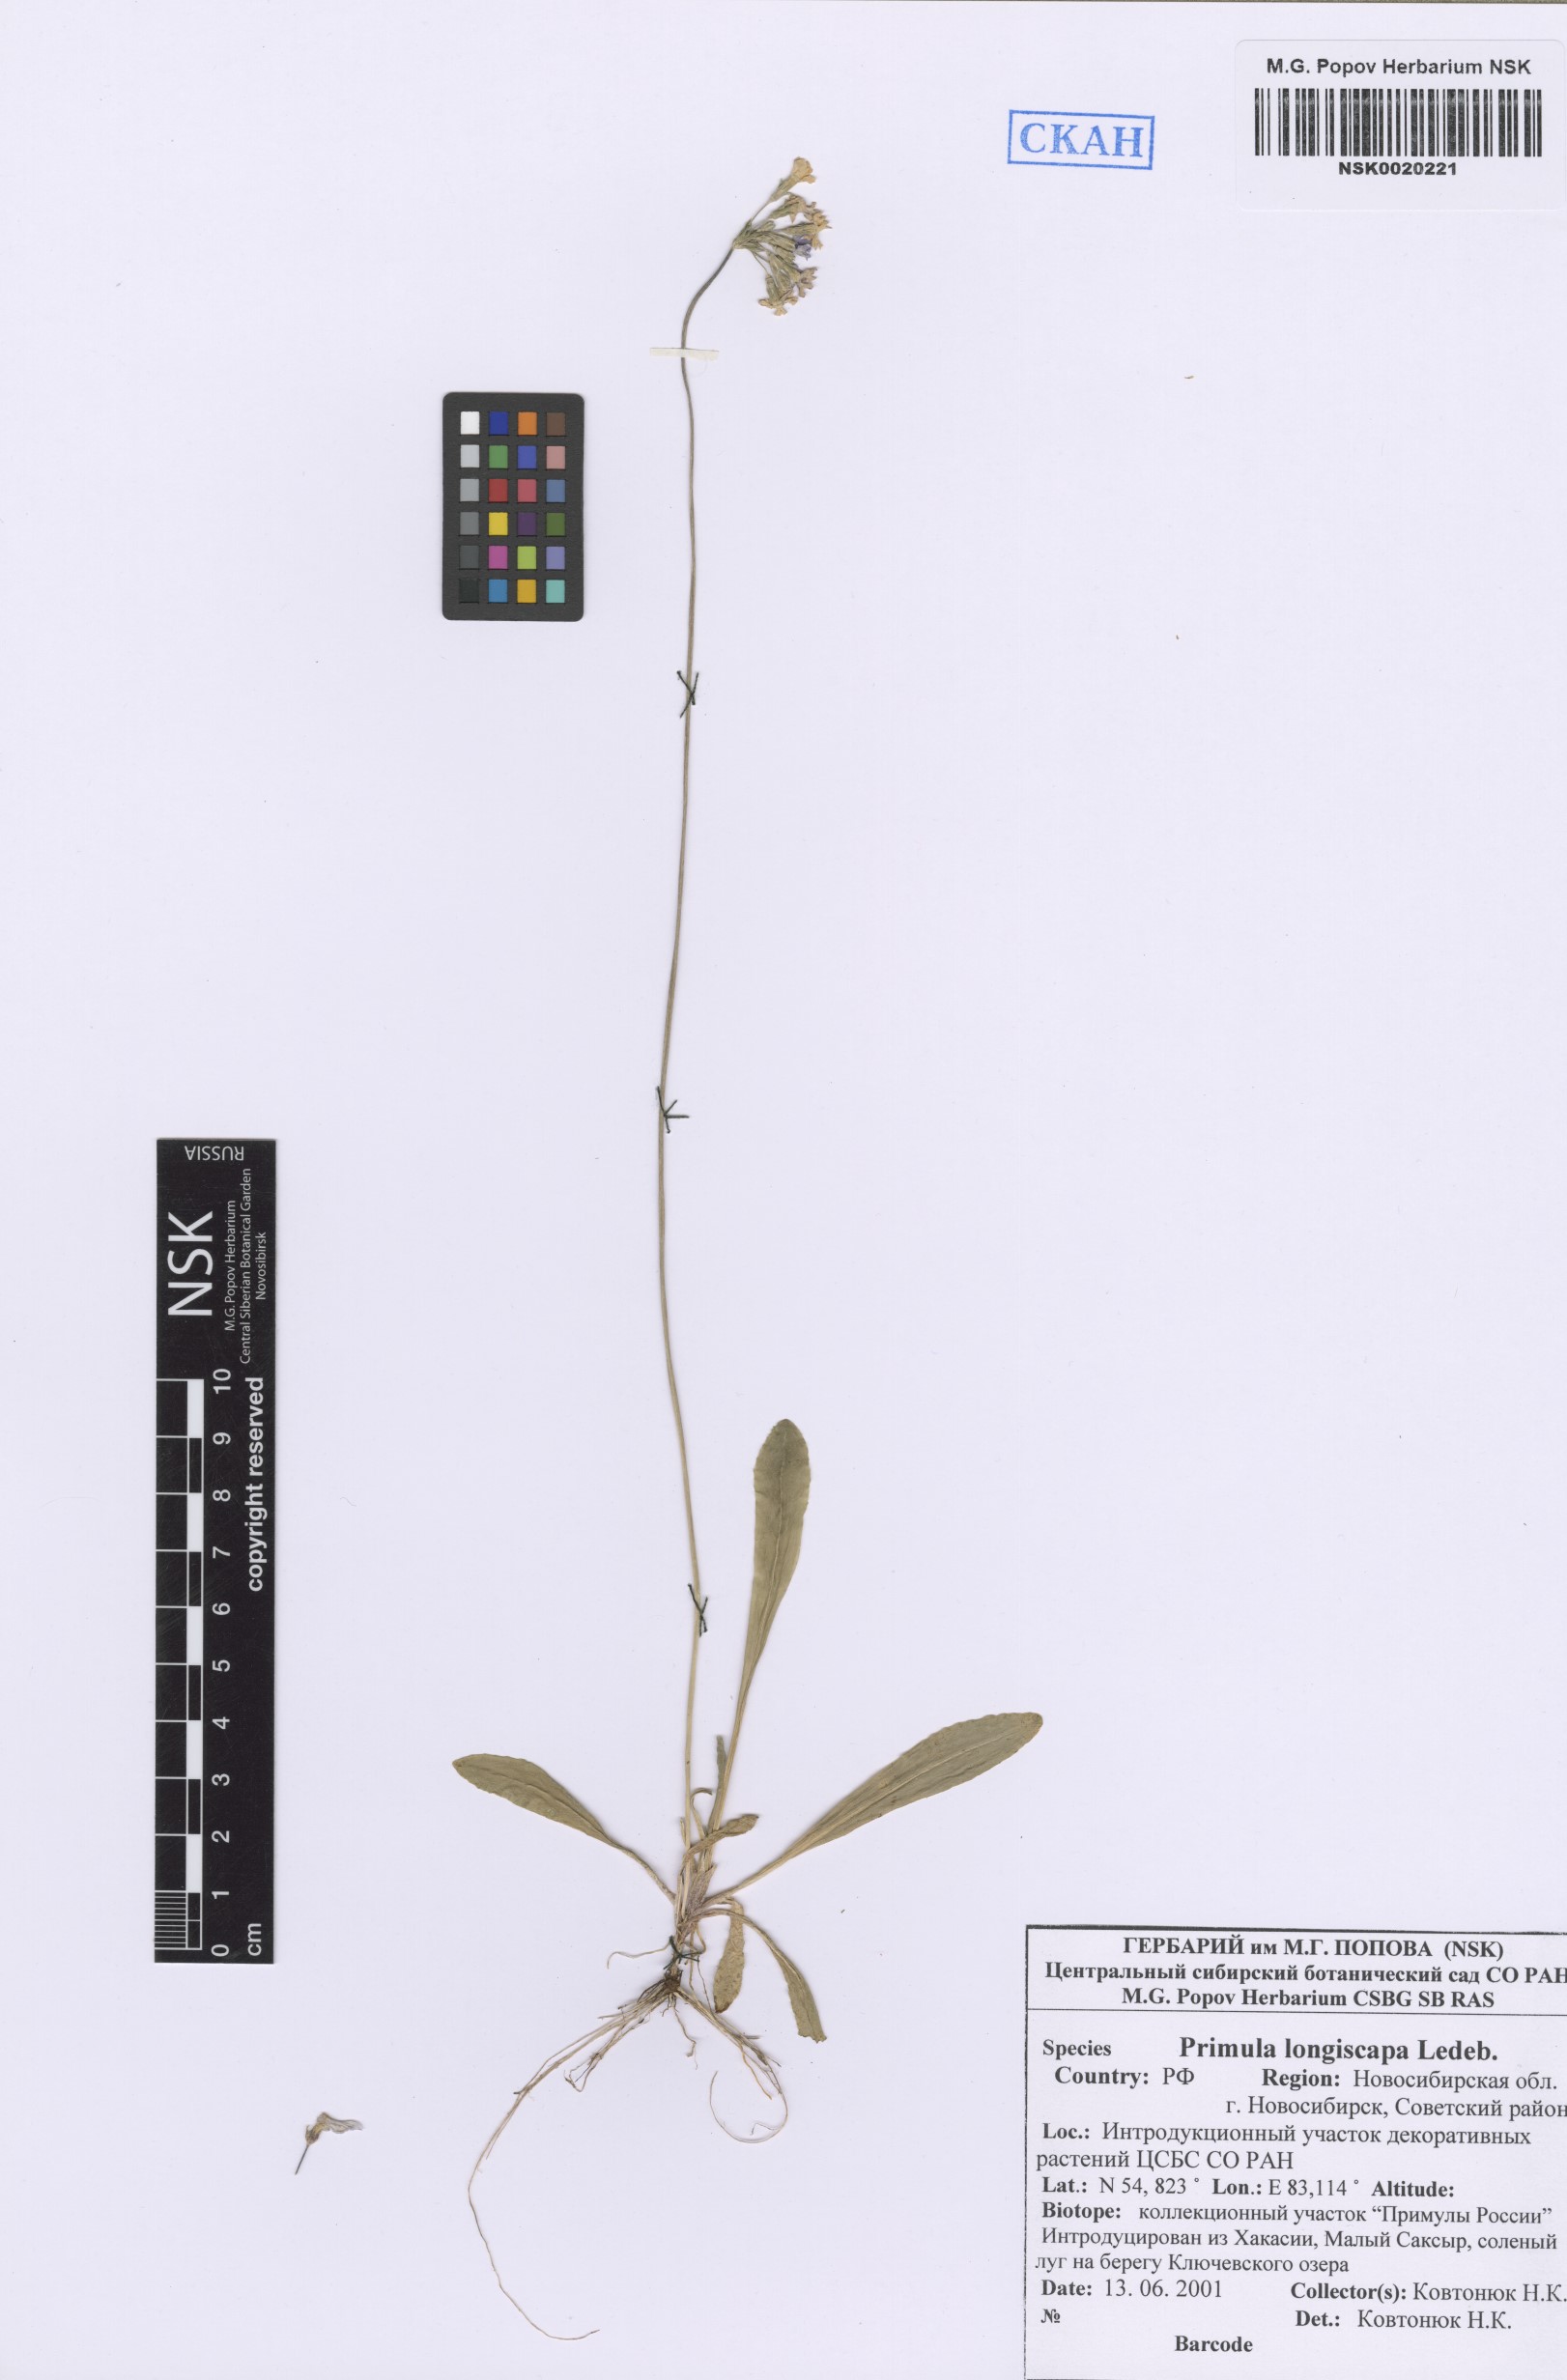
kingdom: Plantae
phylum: Tracheophyta
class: Magnoliopsida
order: Ericales
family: Primulaceae
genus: Primula
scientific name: Primula longiscapa
